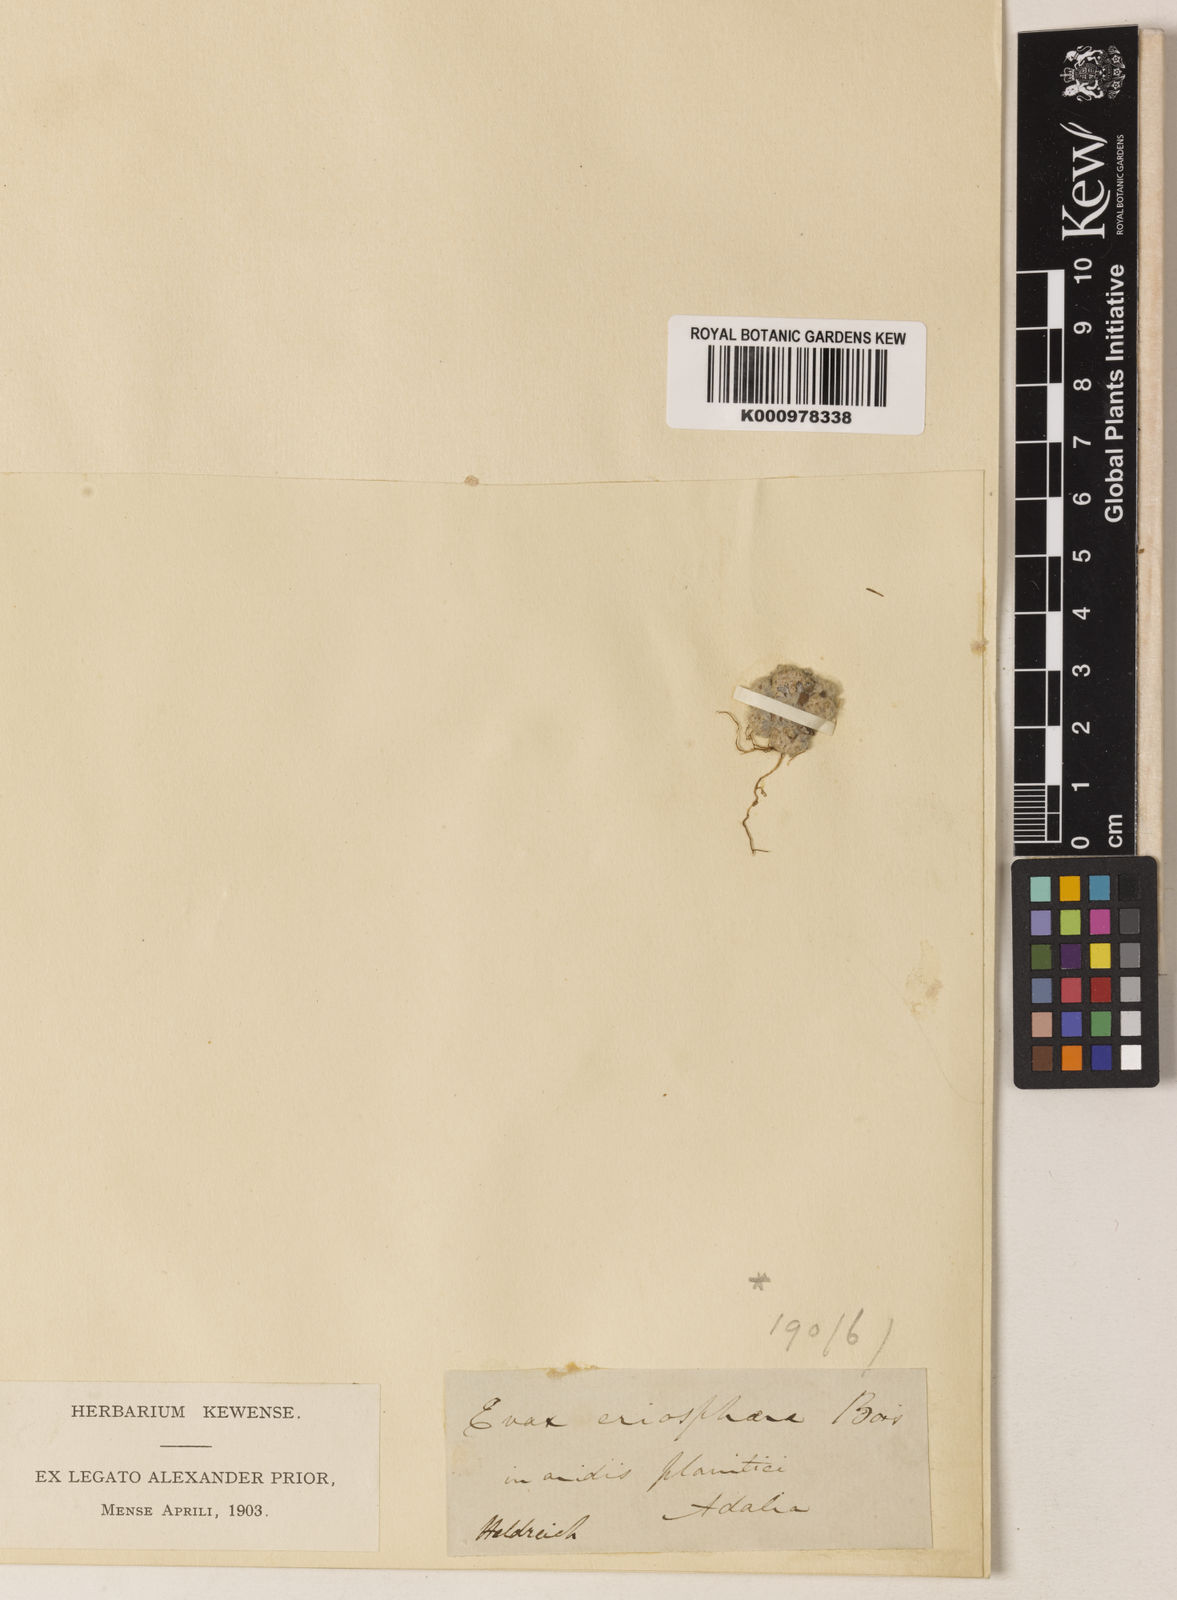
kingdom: Plantae
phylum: Tracheophyta
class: Magnoliopsida
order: Asterales
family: Asteraceae
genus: Filago
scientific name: Filago
